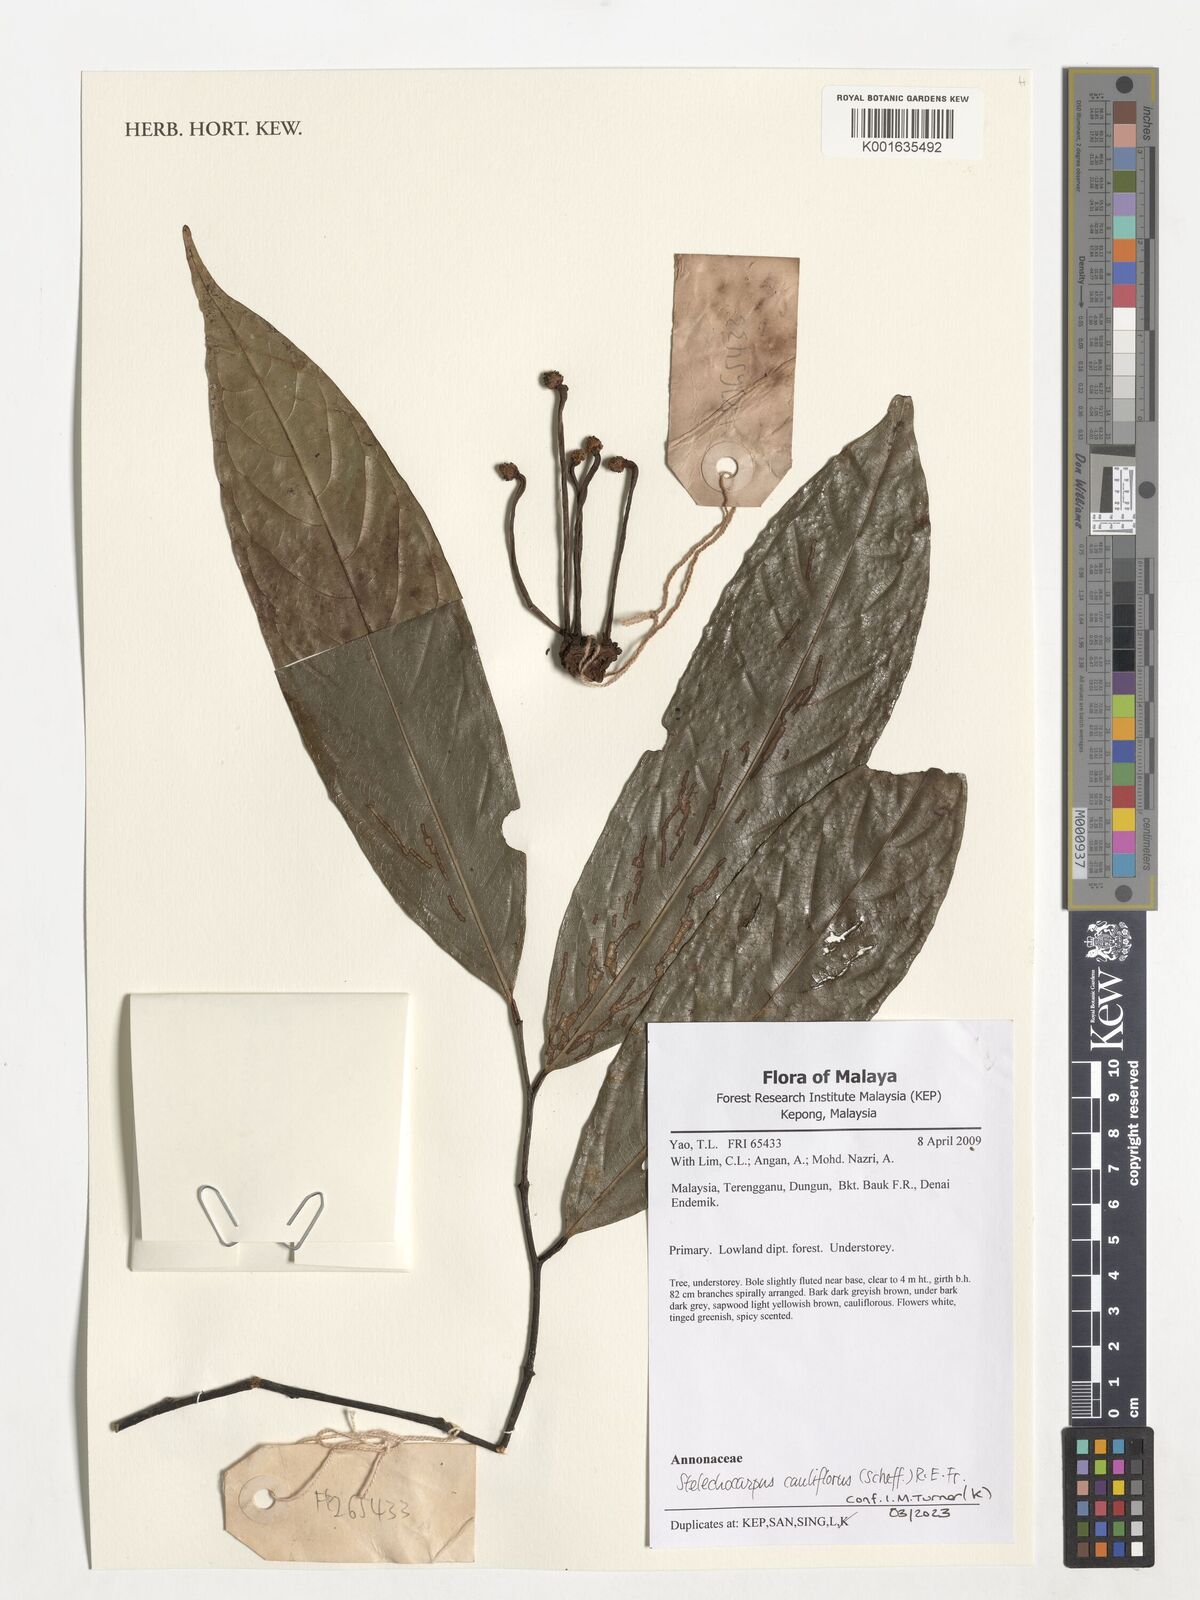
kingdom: Plantae
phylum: Tracheophyta
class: Magnoliopsida
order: Magnoliales
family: Annonaceae
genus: Stelechocarpus
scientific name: Stelechocarpus cauliflorus
